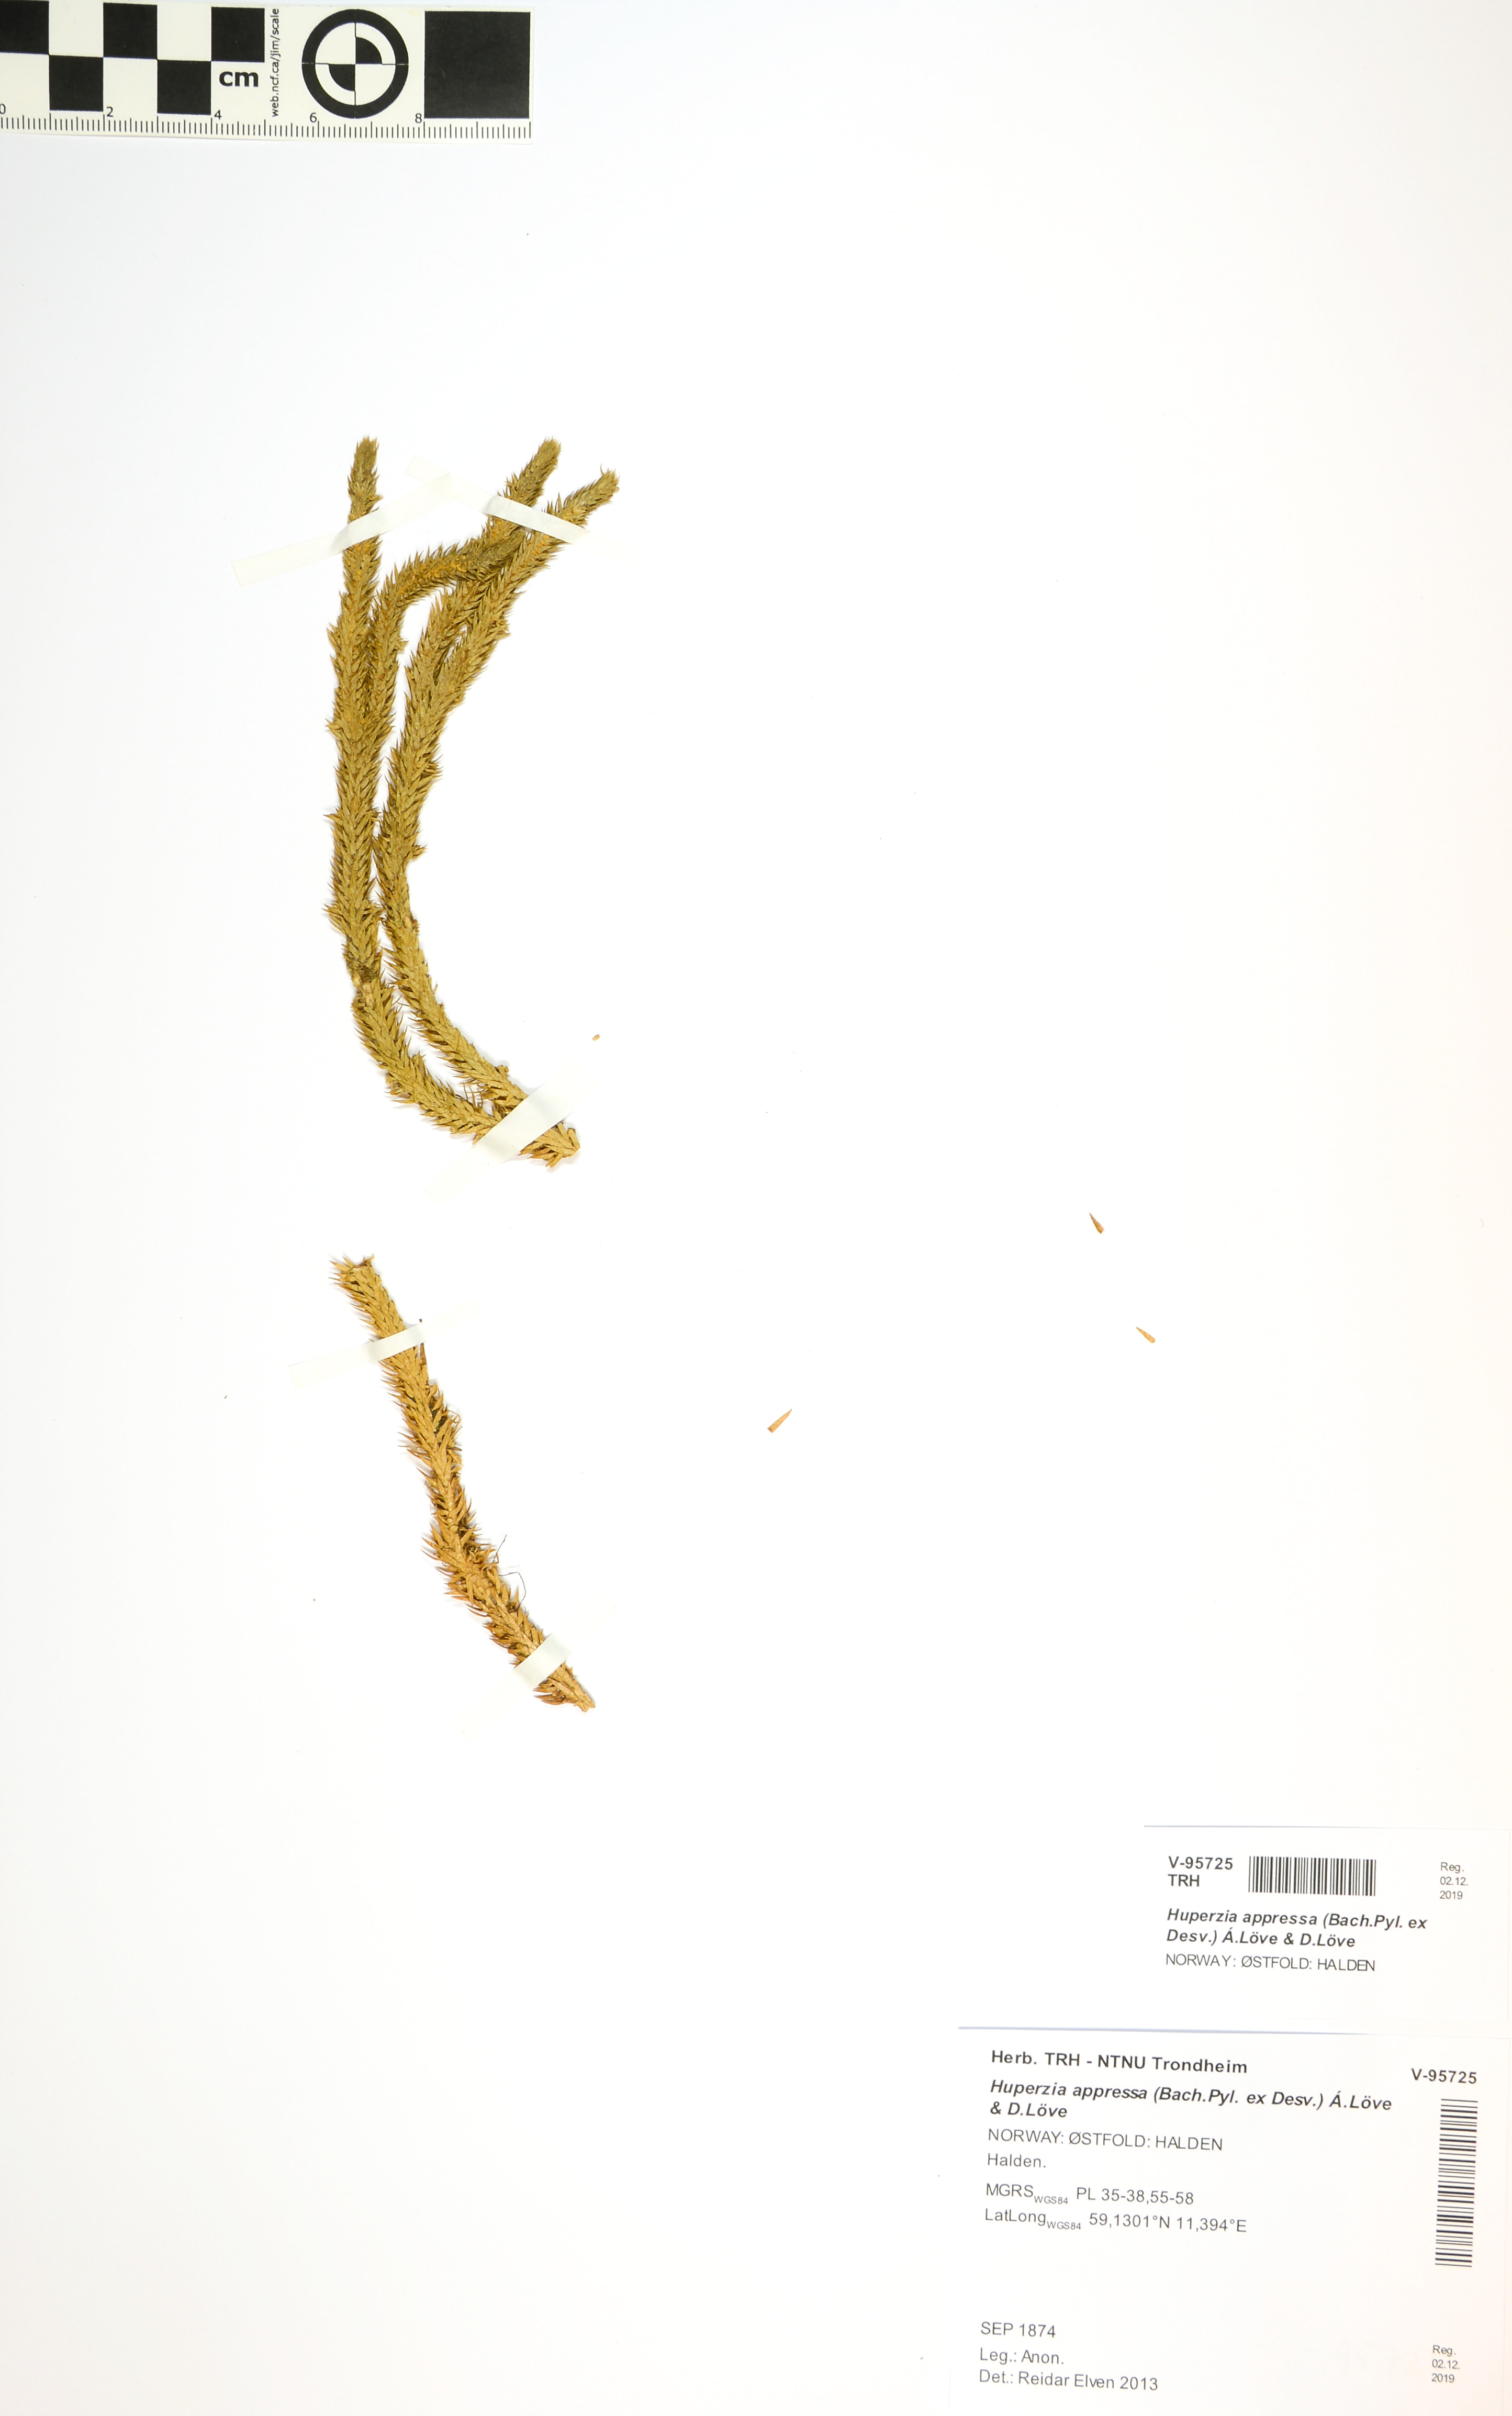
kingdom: Plantae
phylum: Tracheophyta
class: Lycopodiopsida
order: Lycopodiales
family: Lycopodiaceae
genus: Huperzia
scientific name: Huperzia selago
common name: Northern firmoss
